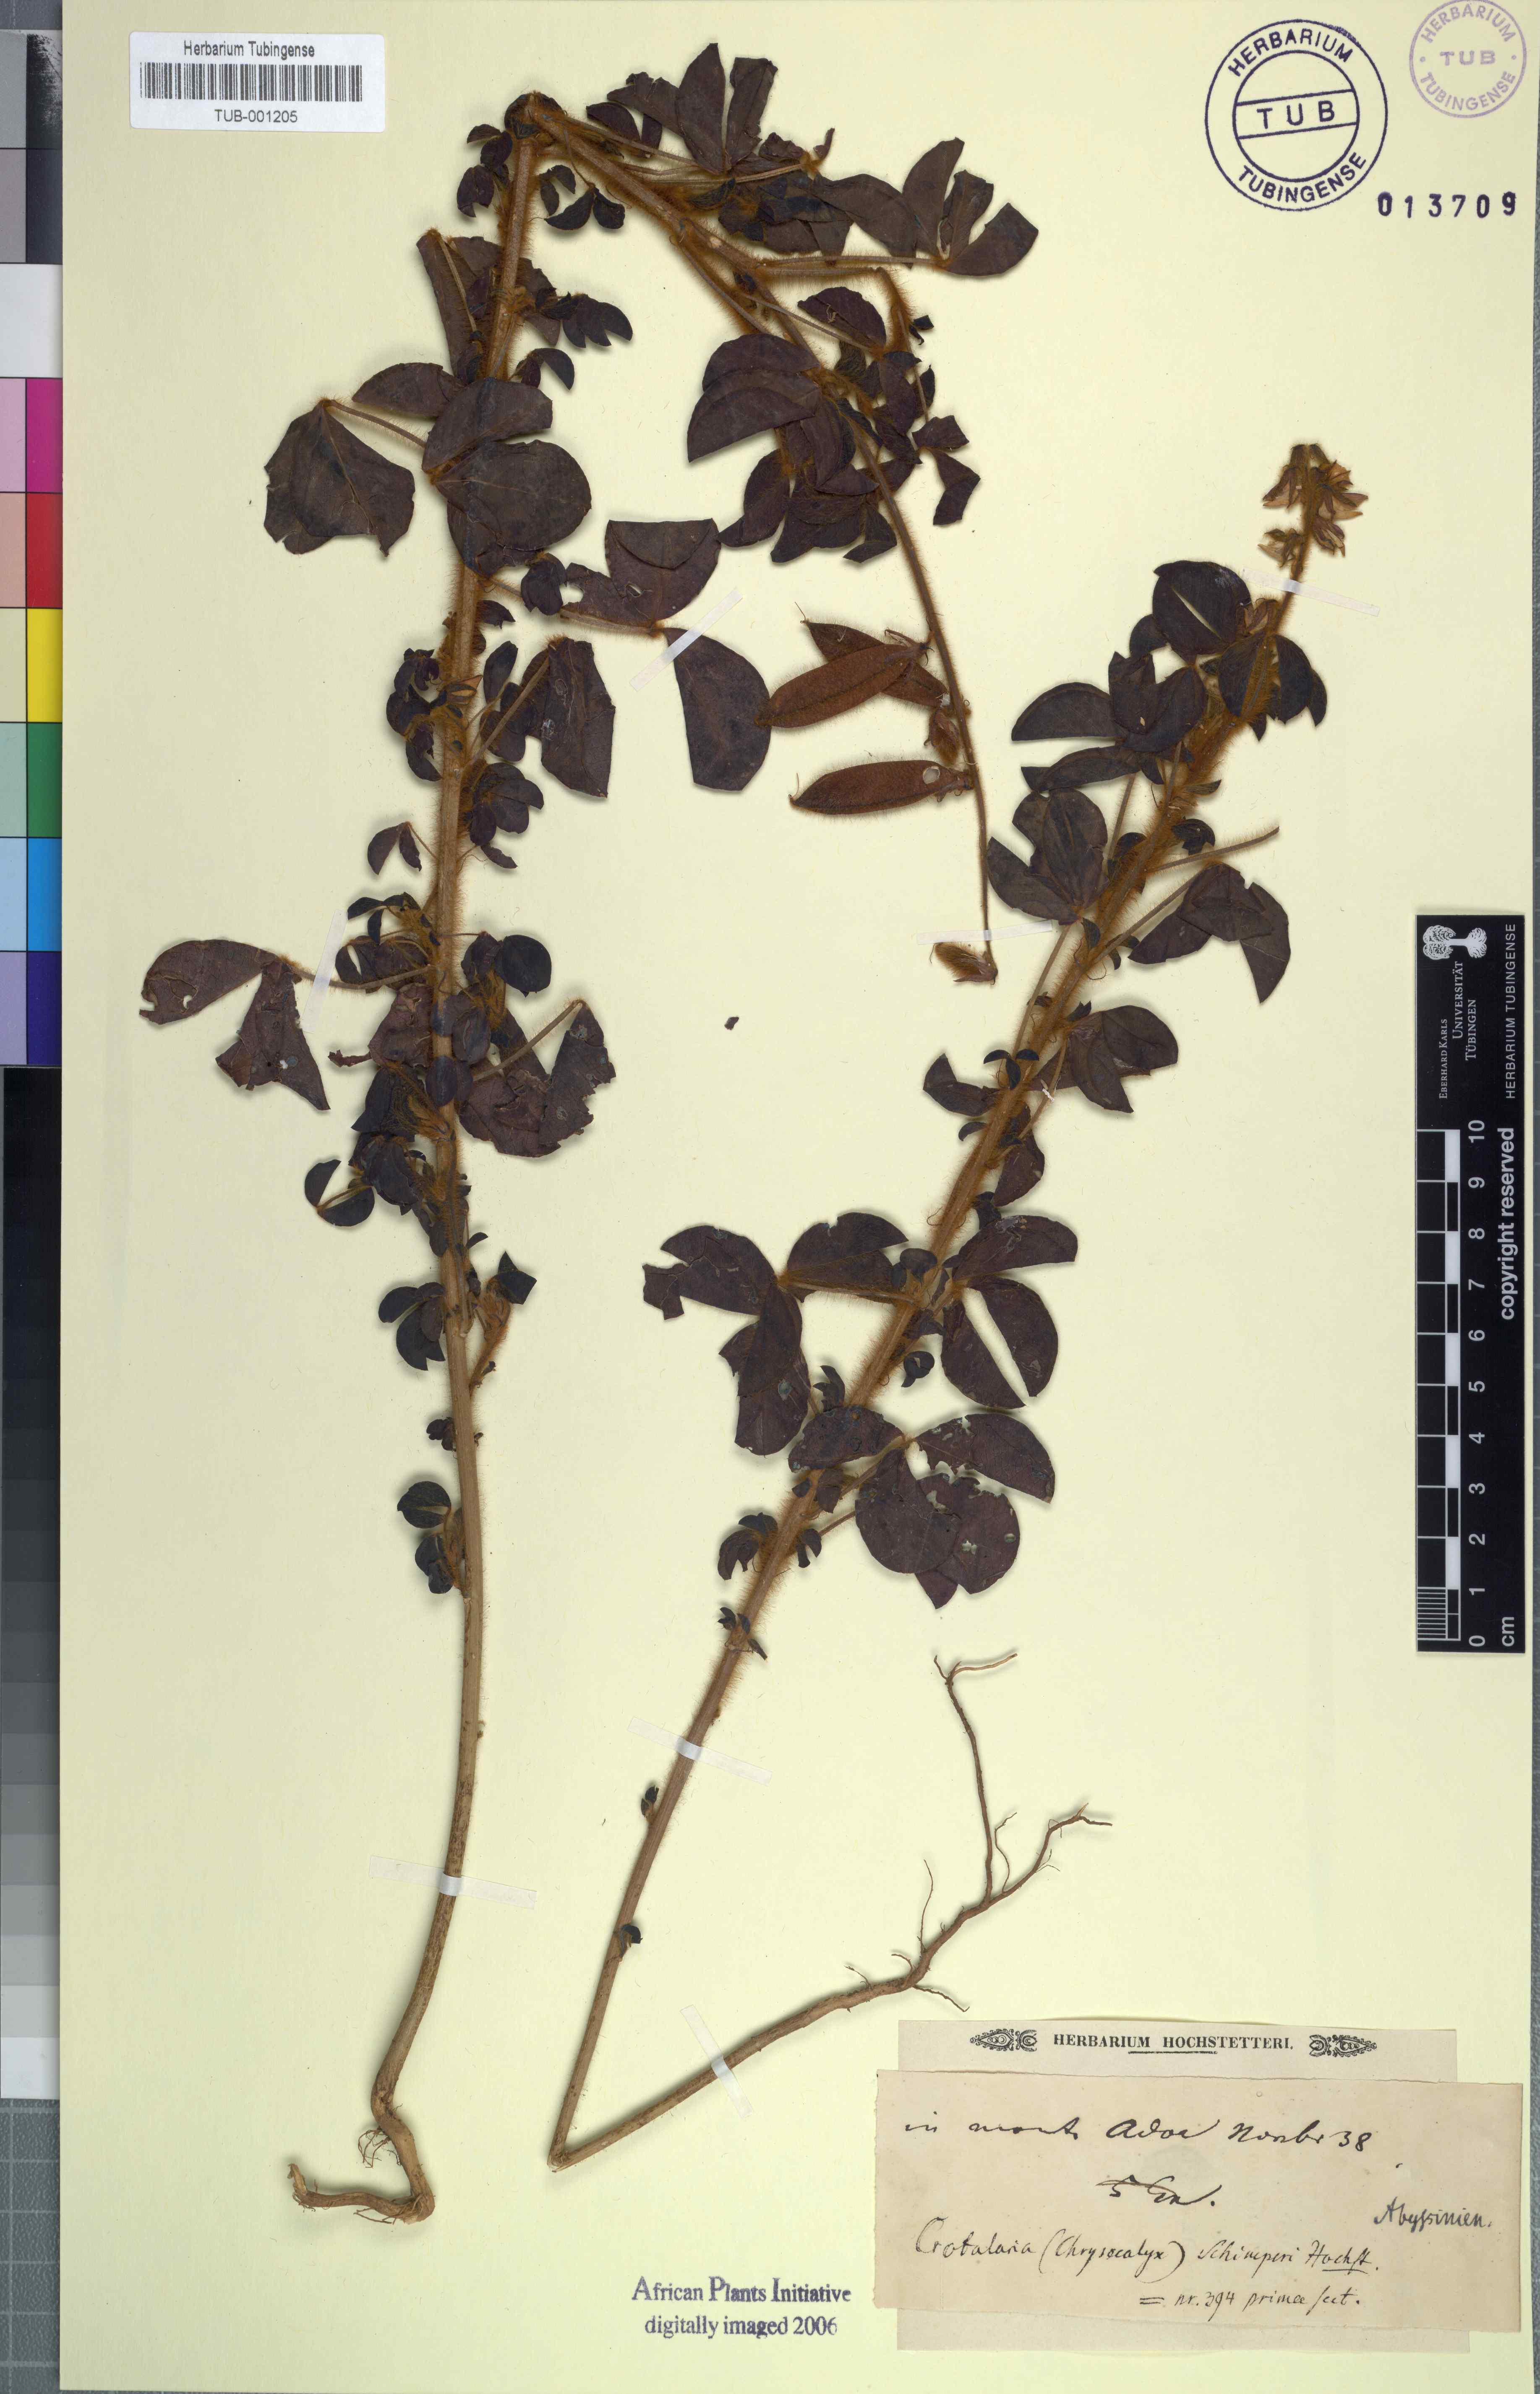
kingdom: Plantae
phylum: Tracheophyta
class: Magnoliopsida
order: Fabales
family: Fabaceae
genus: Crotalaria
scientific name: Crotalaria incana
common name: Shakeshake
